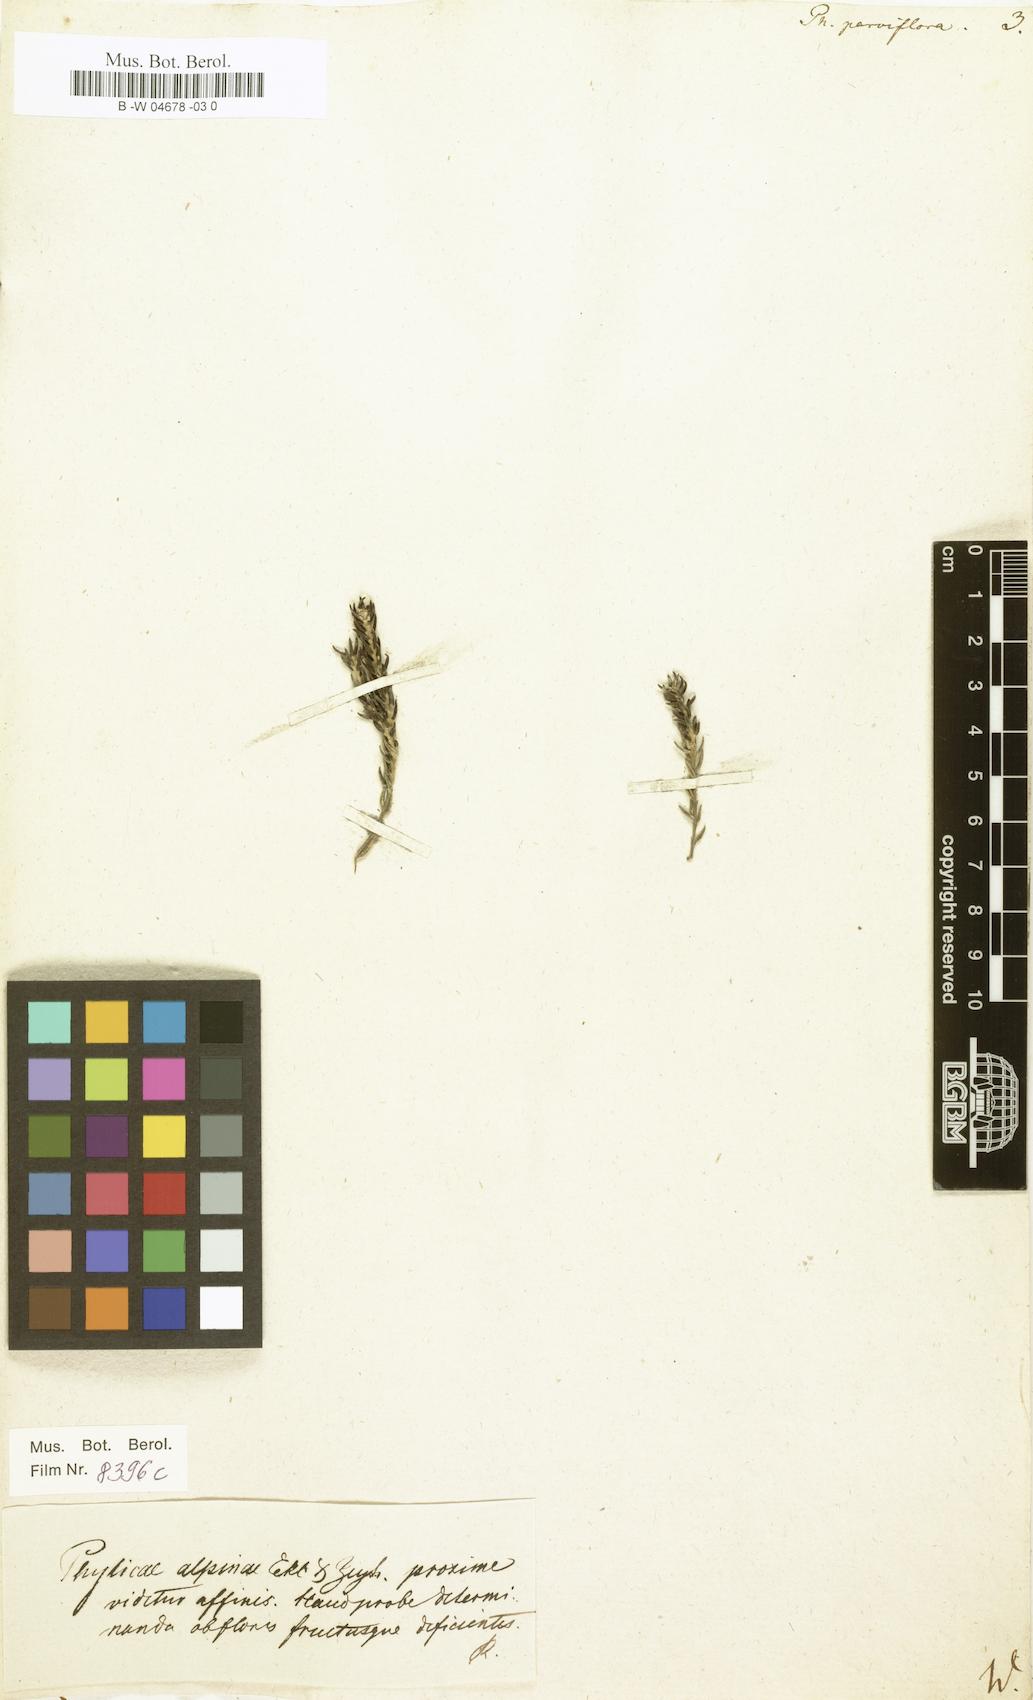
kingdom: Plantae
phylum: Tracheophyta
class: Magnoliopsida
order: Rosales
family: Rhamnaceae
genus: Phylica
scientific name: Phylica parviflora
